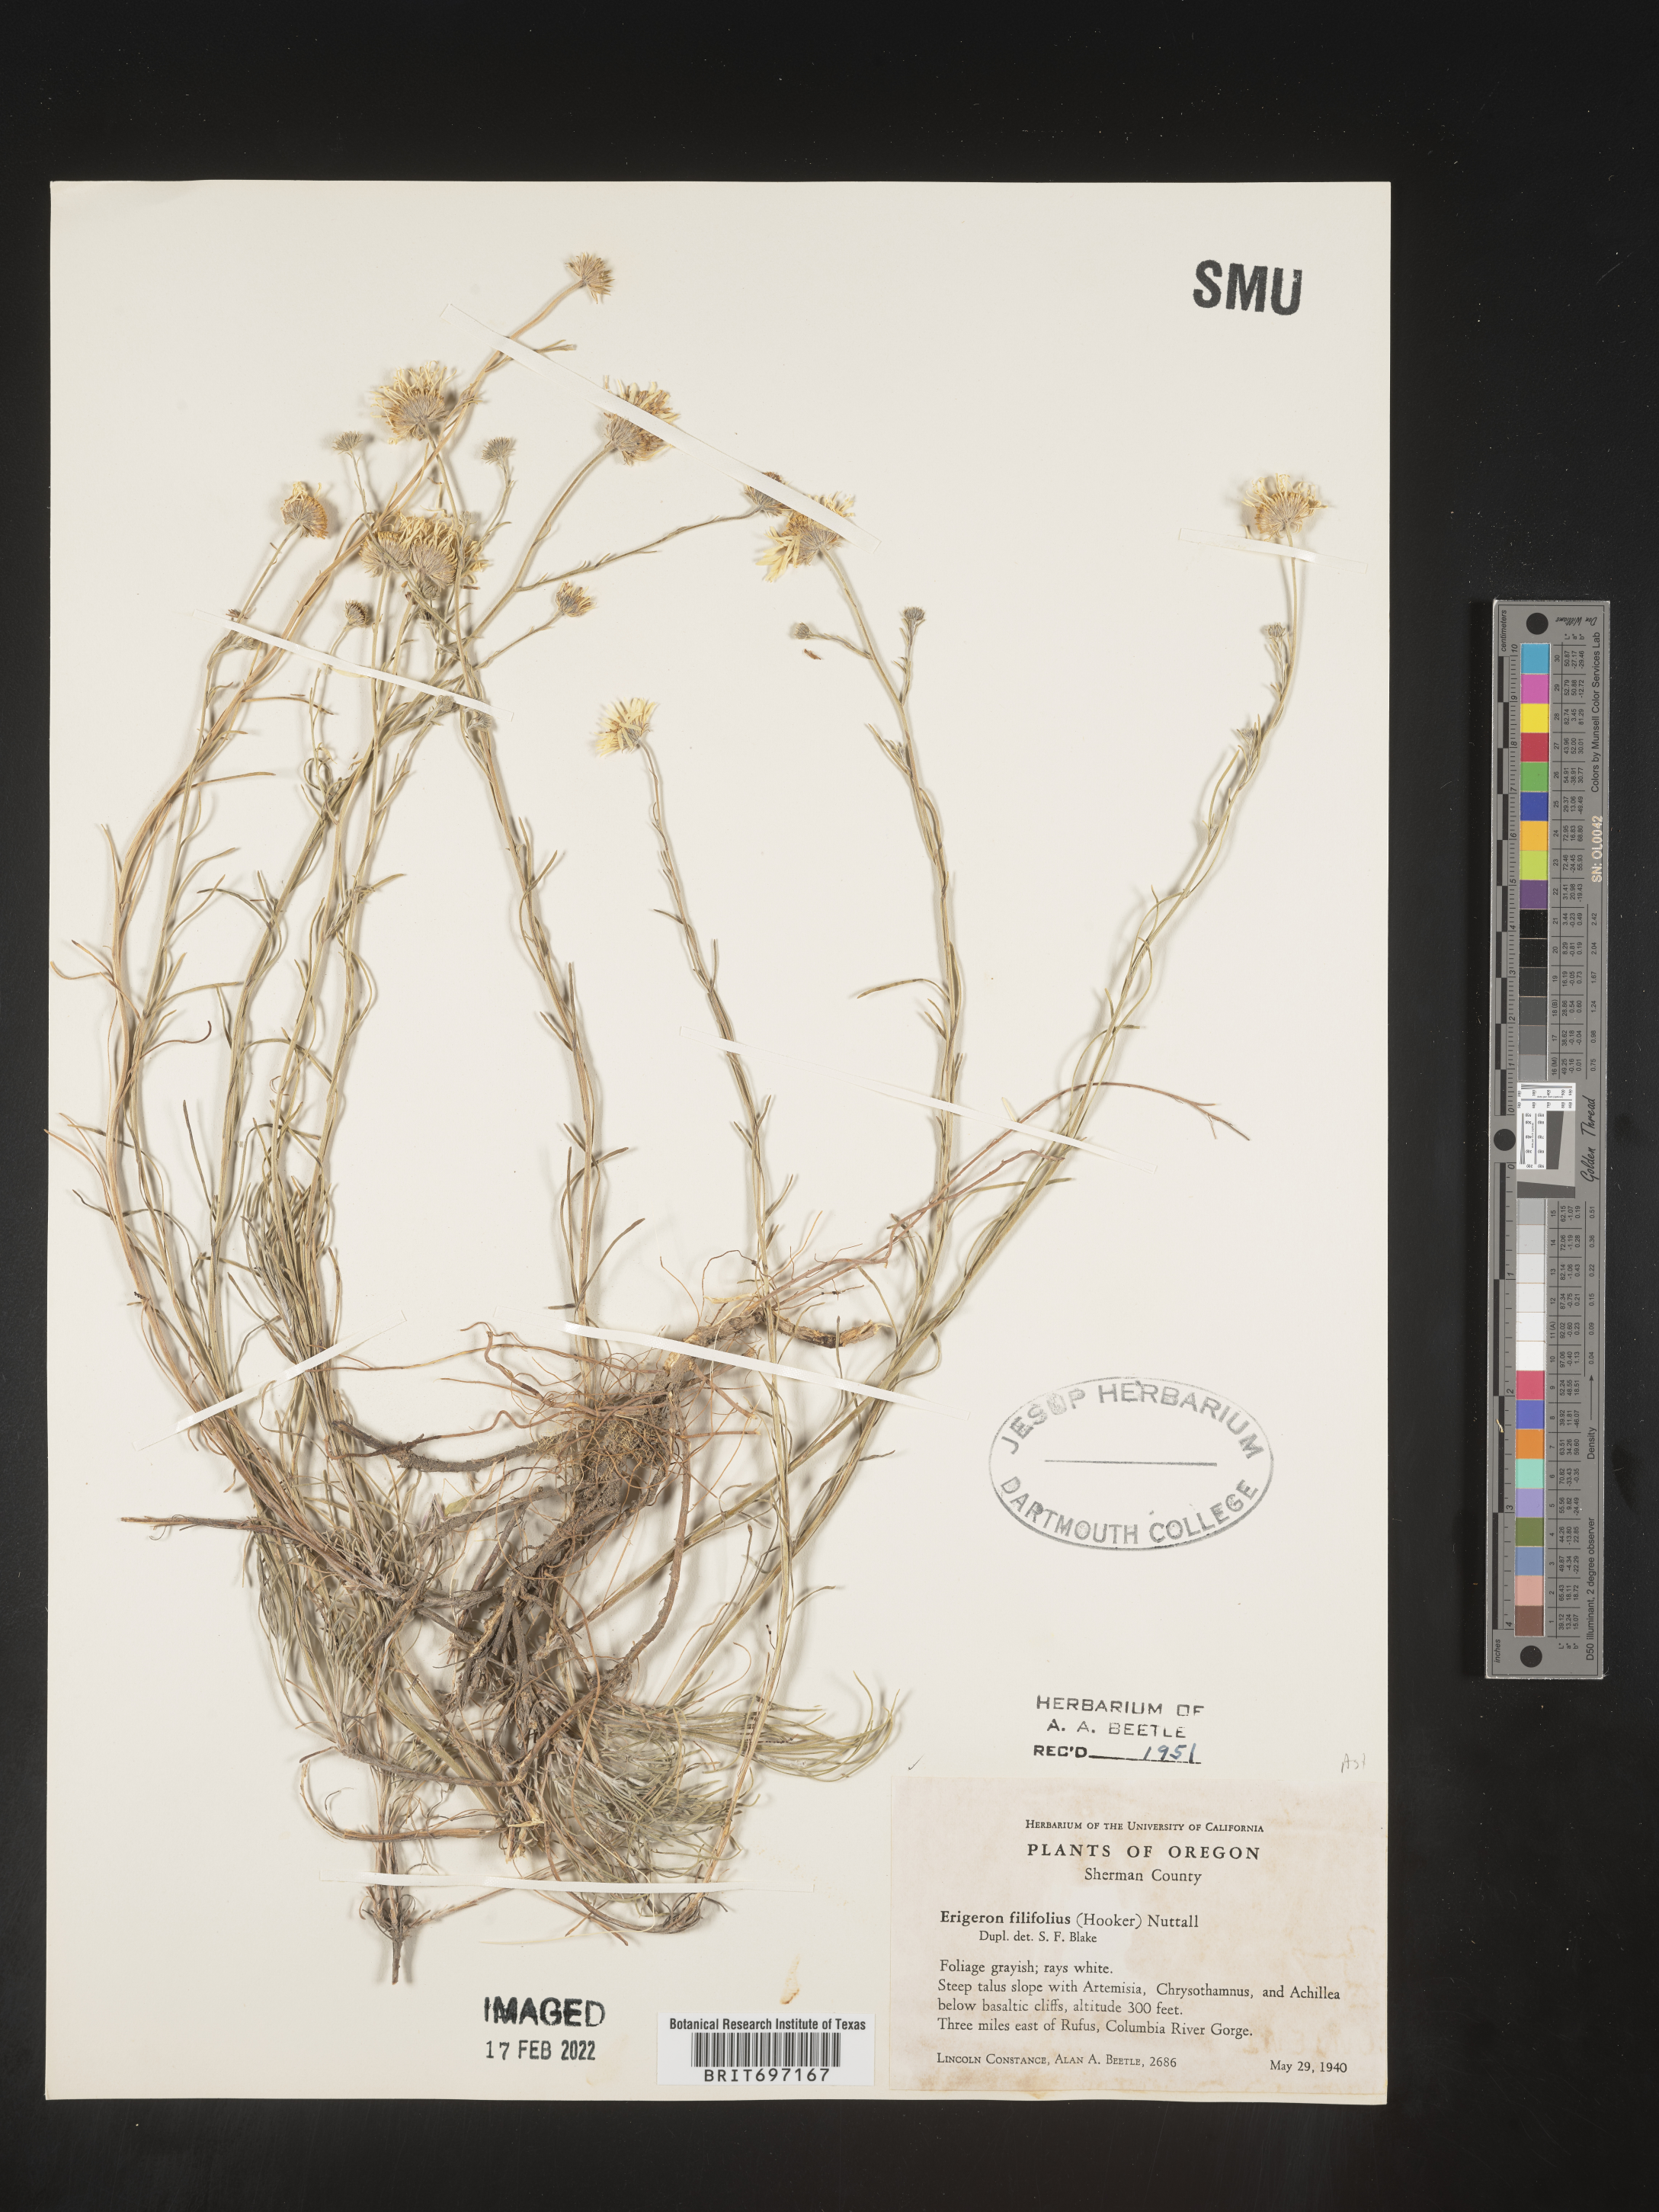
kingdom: Plantae
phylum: Tracheophyta
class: Magnoliopsida
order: Asterales
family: Asteraceae
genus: Erigeron
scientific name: Erigeron filifolius
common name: Threadleaf fleabane
